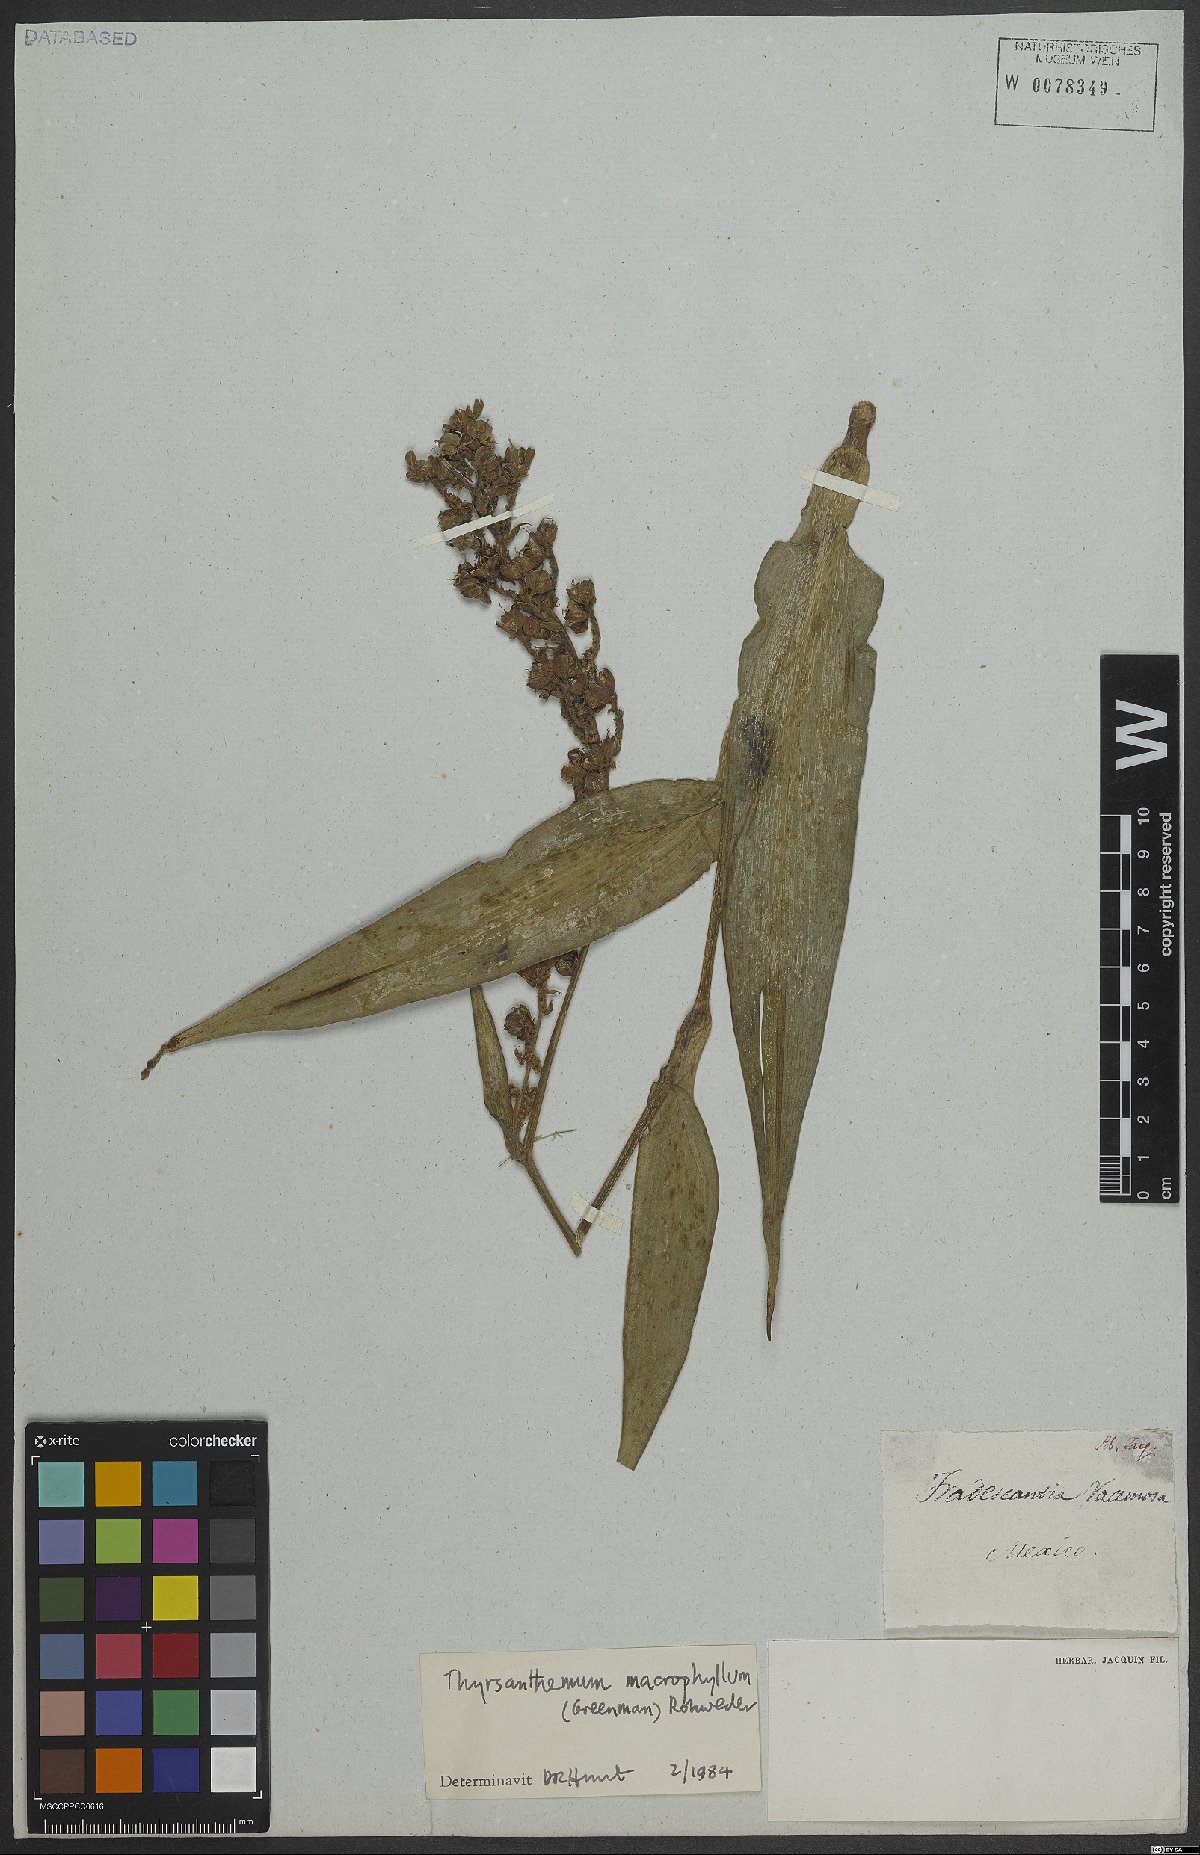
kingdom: Plantae
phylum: Tracheophyta
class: Liliopsida
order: Commelinales
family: Commelinaceae
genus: Thyrsanthemum
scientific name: Thyrsanthemum longifolium
